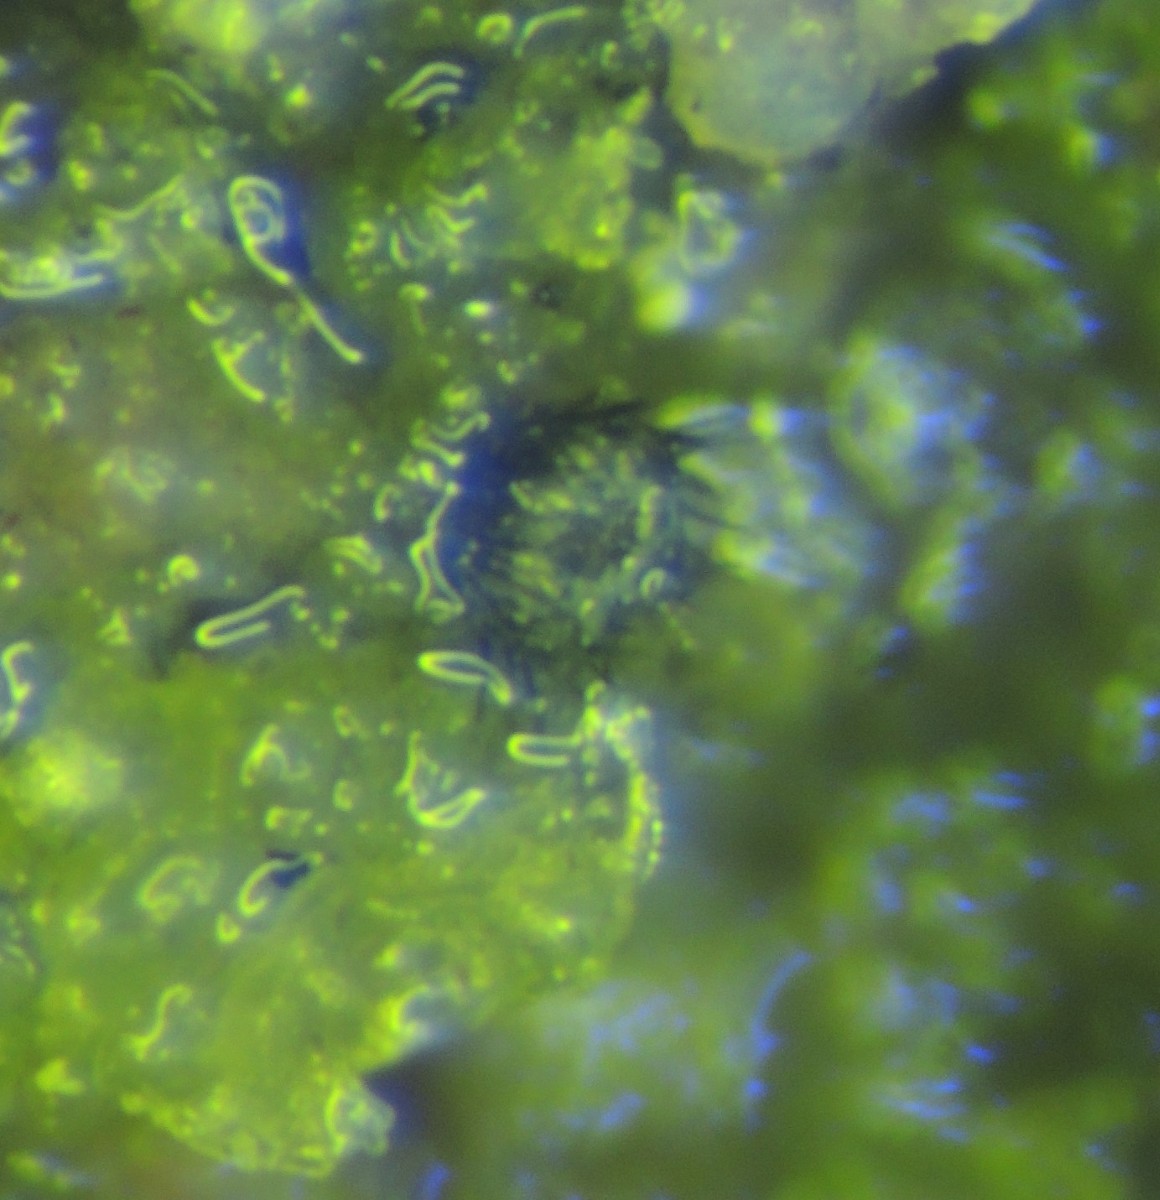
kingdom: Fungi
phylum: Ascomycota
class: Leotiomycetes
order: Helotiales
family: Hyphodiscaceae
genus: Venturiocistella
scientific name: Venturiocistella pini
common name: fyrre-tveskægskive
